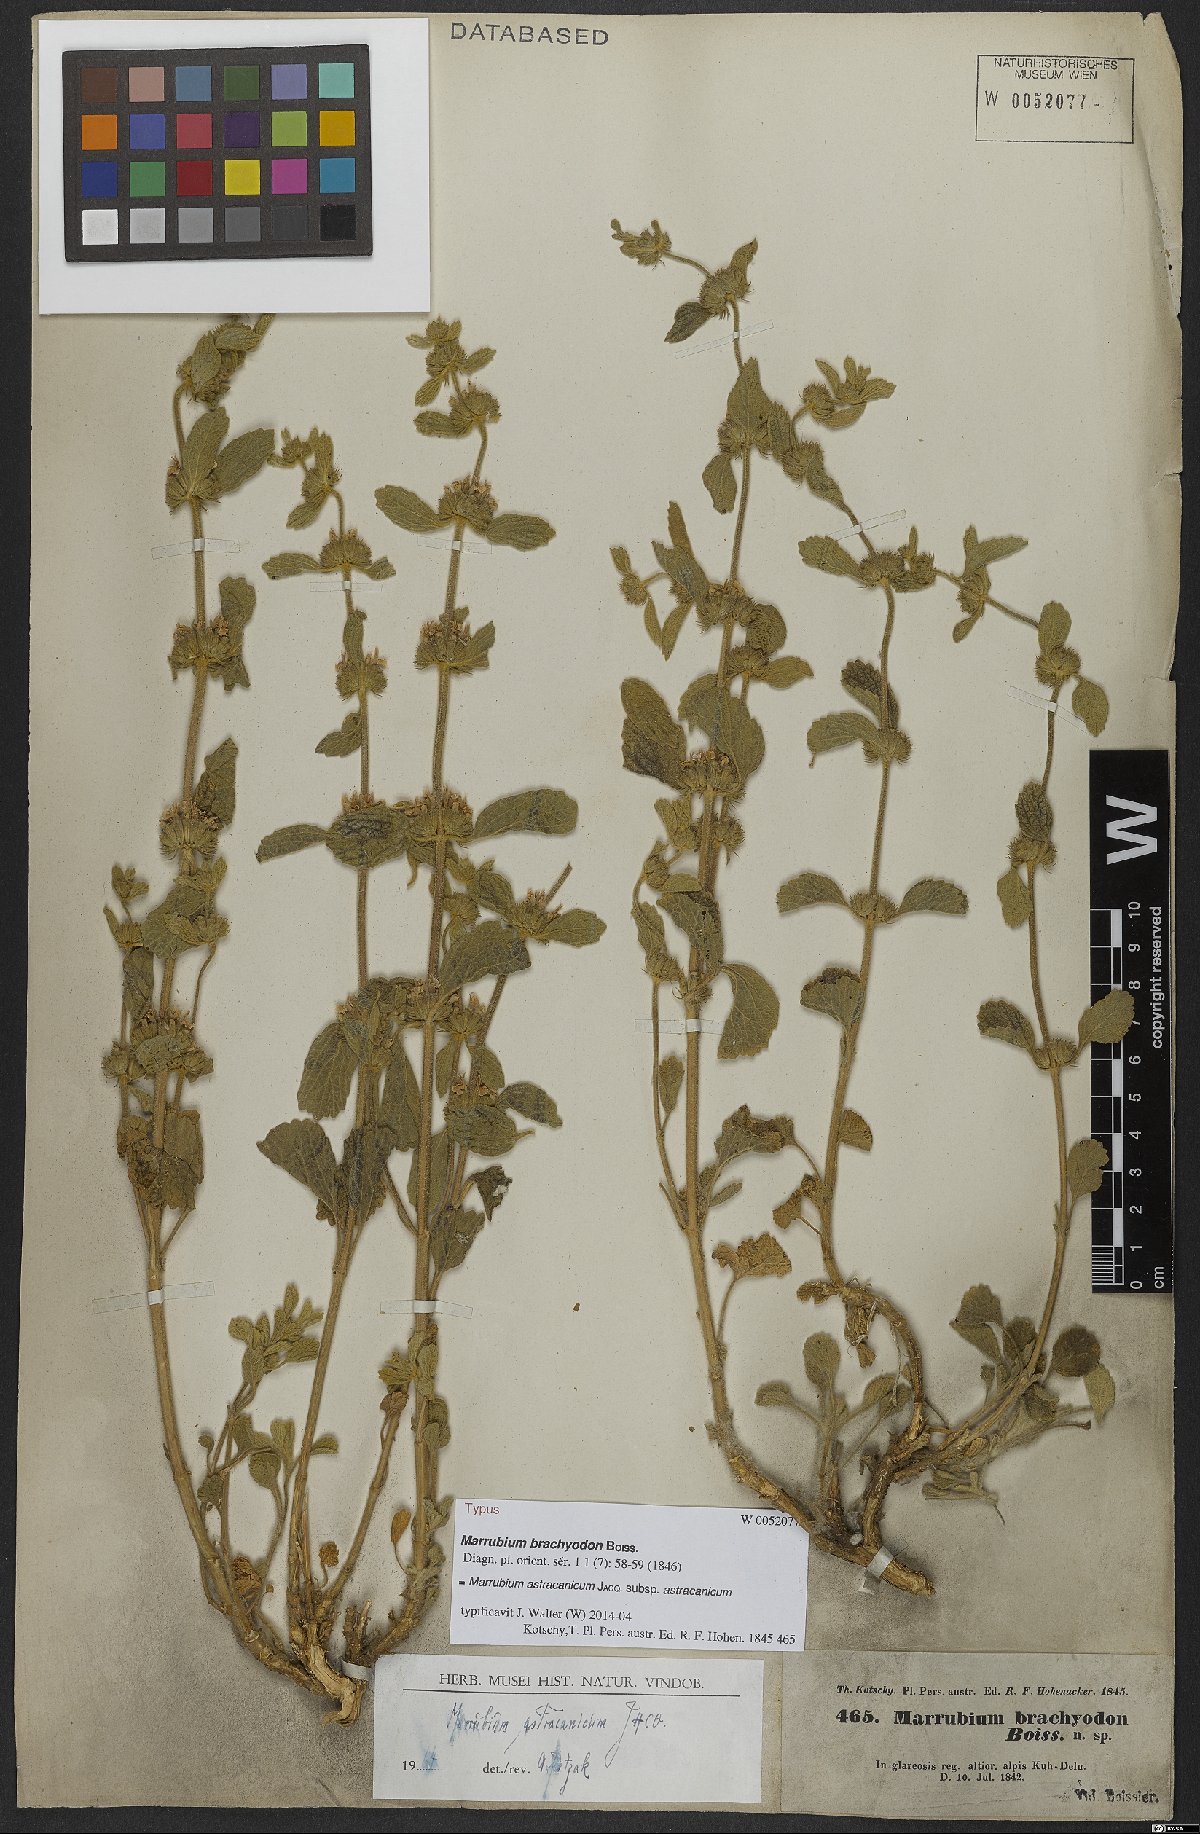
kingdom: Plantae
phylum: Tracheophyta
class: Magnoliopsida
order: Lamiales
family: Lamiaceae
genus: Marrubium
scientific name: Marrubium astracanicum
